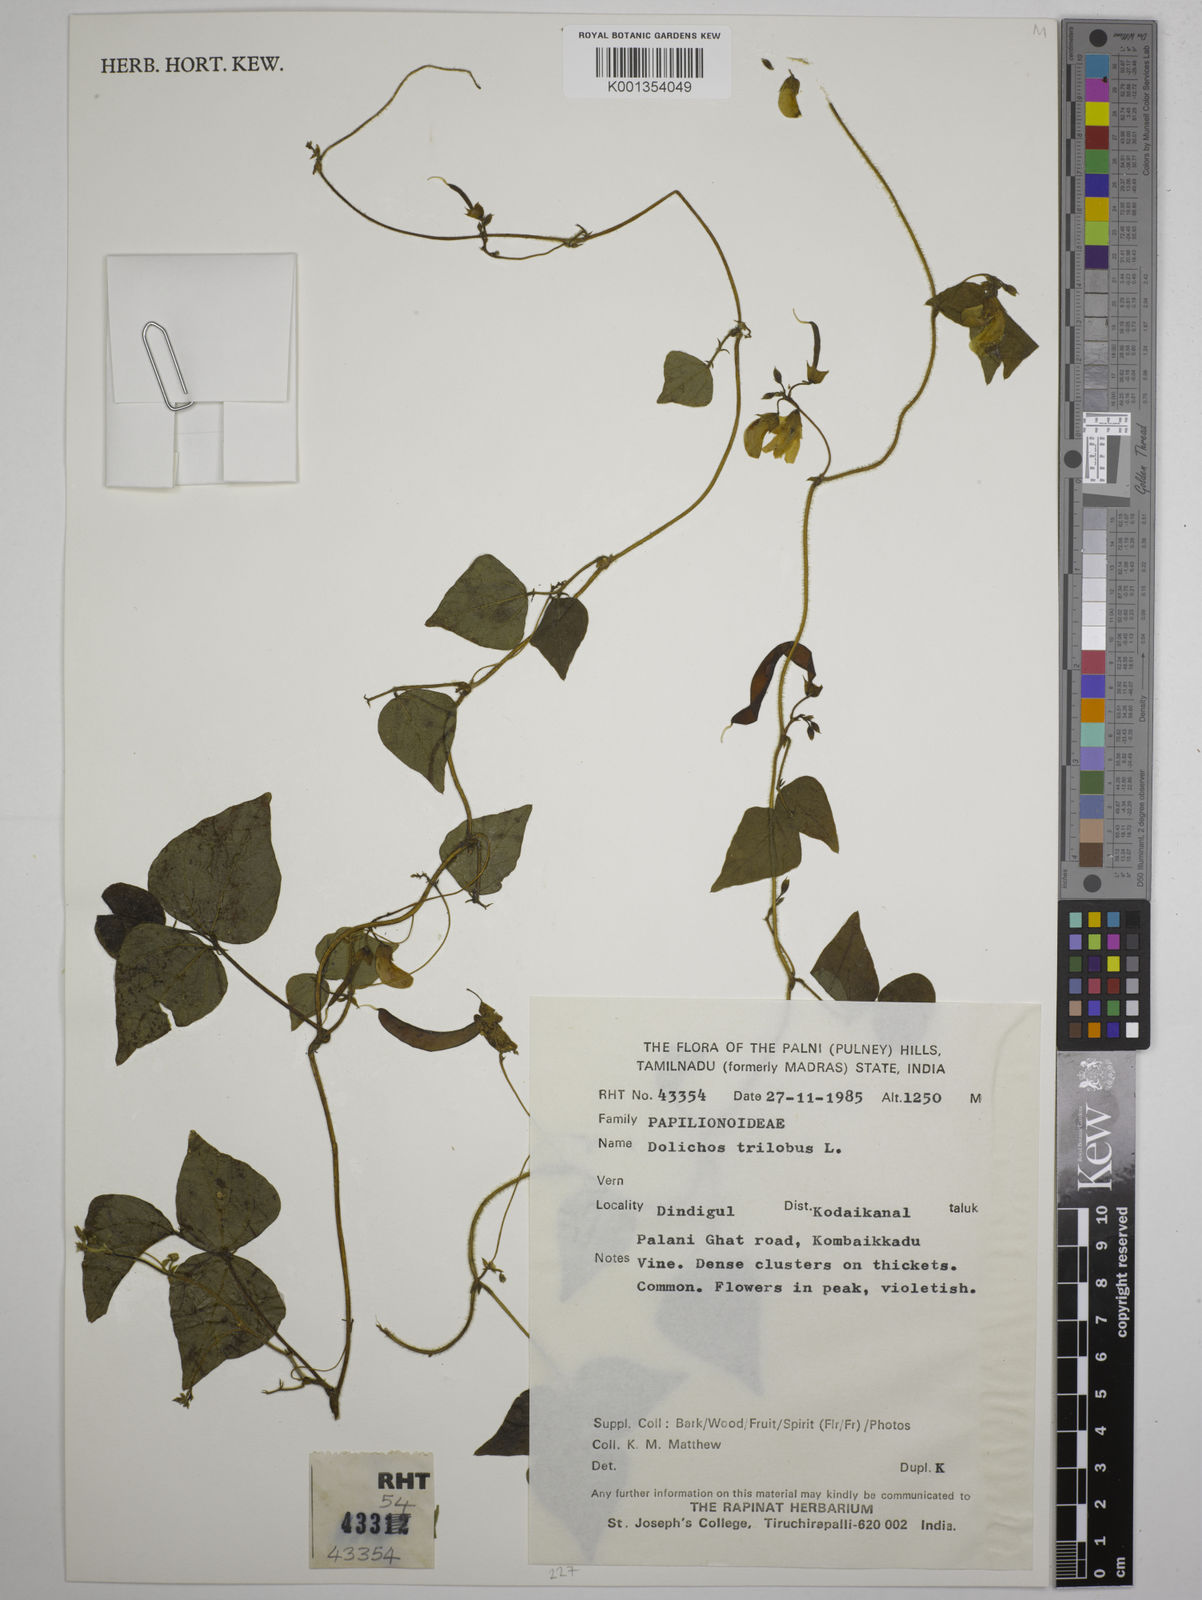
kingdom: Plantae
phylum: Tracheophyta
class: Magnoliopsida
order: Fabales
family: Fabaceae
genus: Dolichos
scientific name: Dolichos
